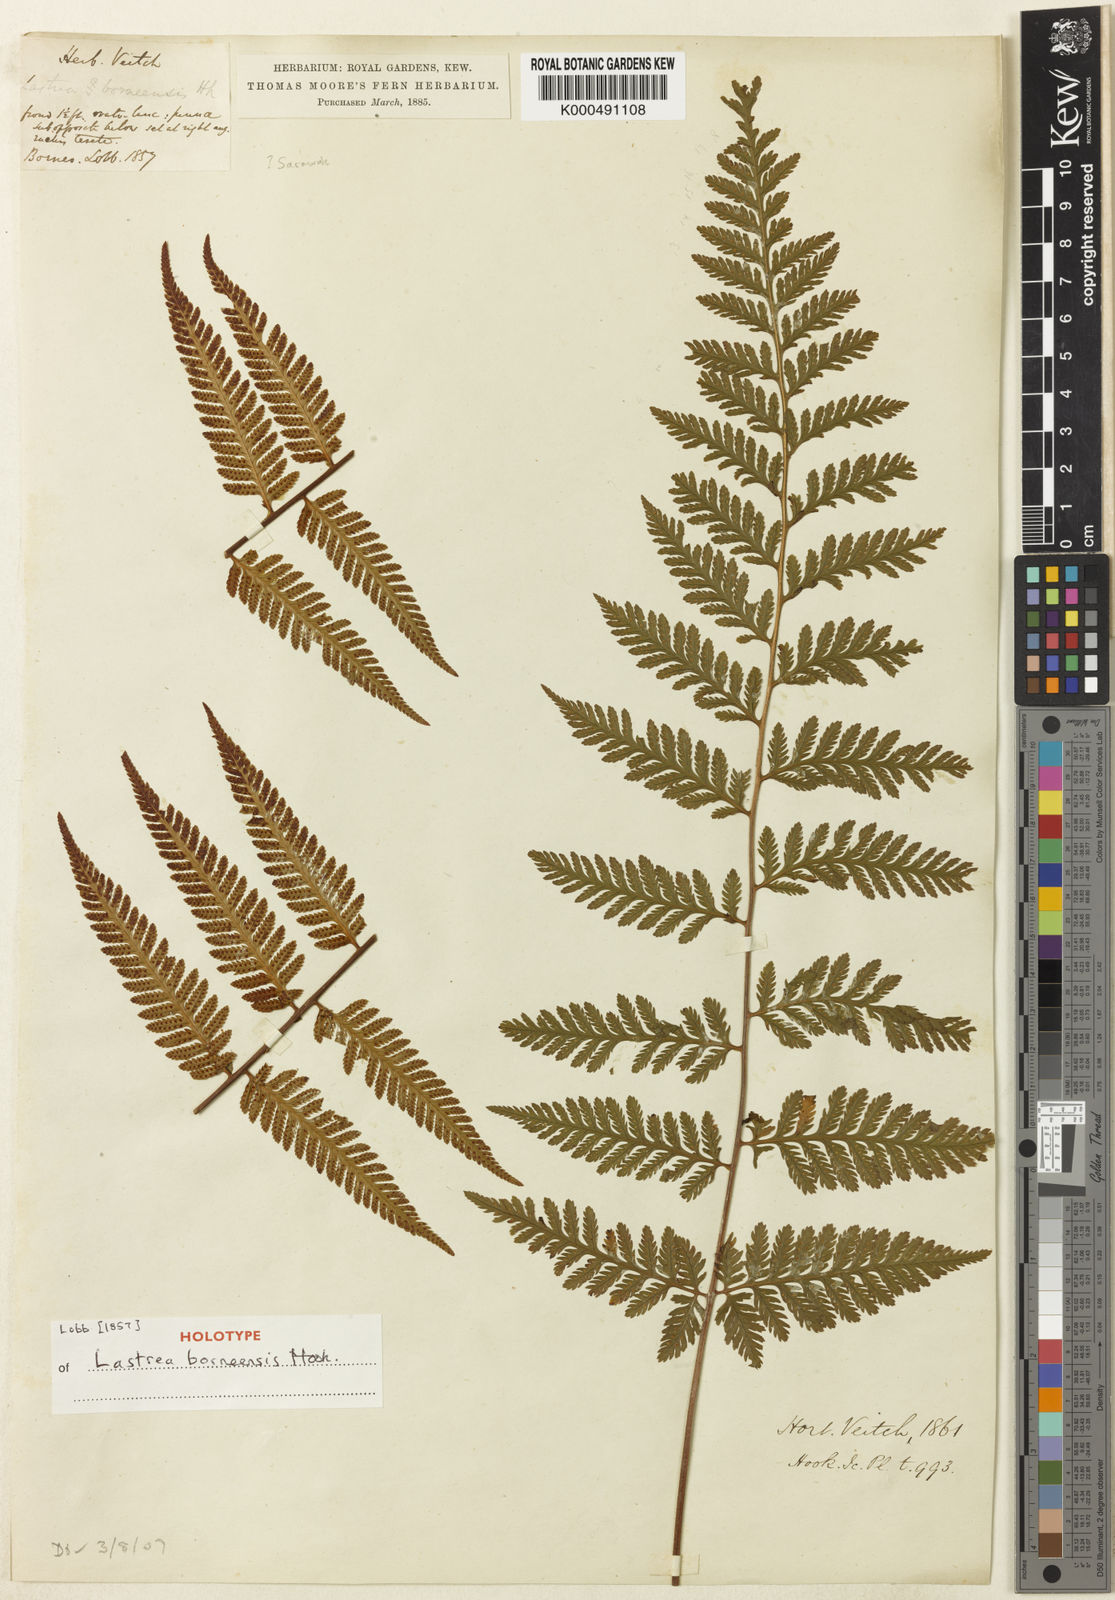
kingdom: Plantae
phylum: Tracheophyta
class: Polypodiopsida
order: Polypodiales
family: Davalliaceae
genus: Davallodes
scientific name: Davallodes borneensis
